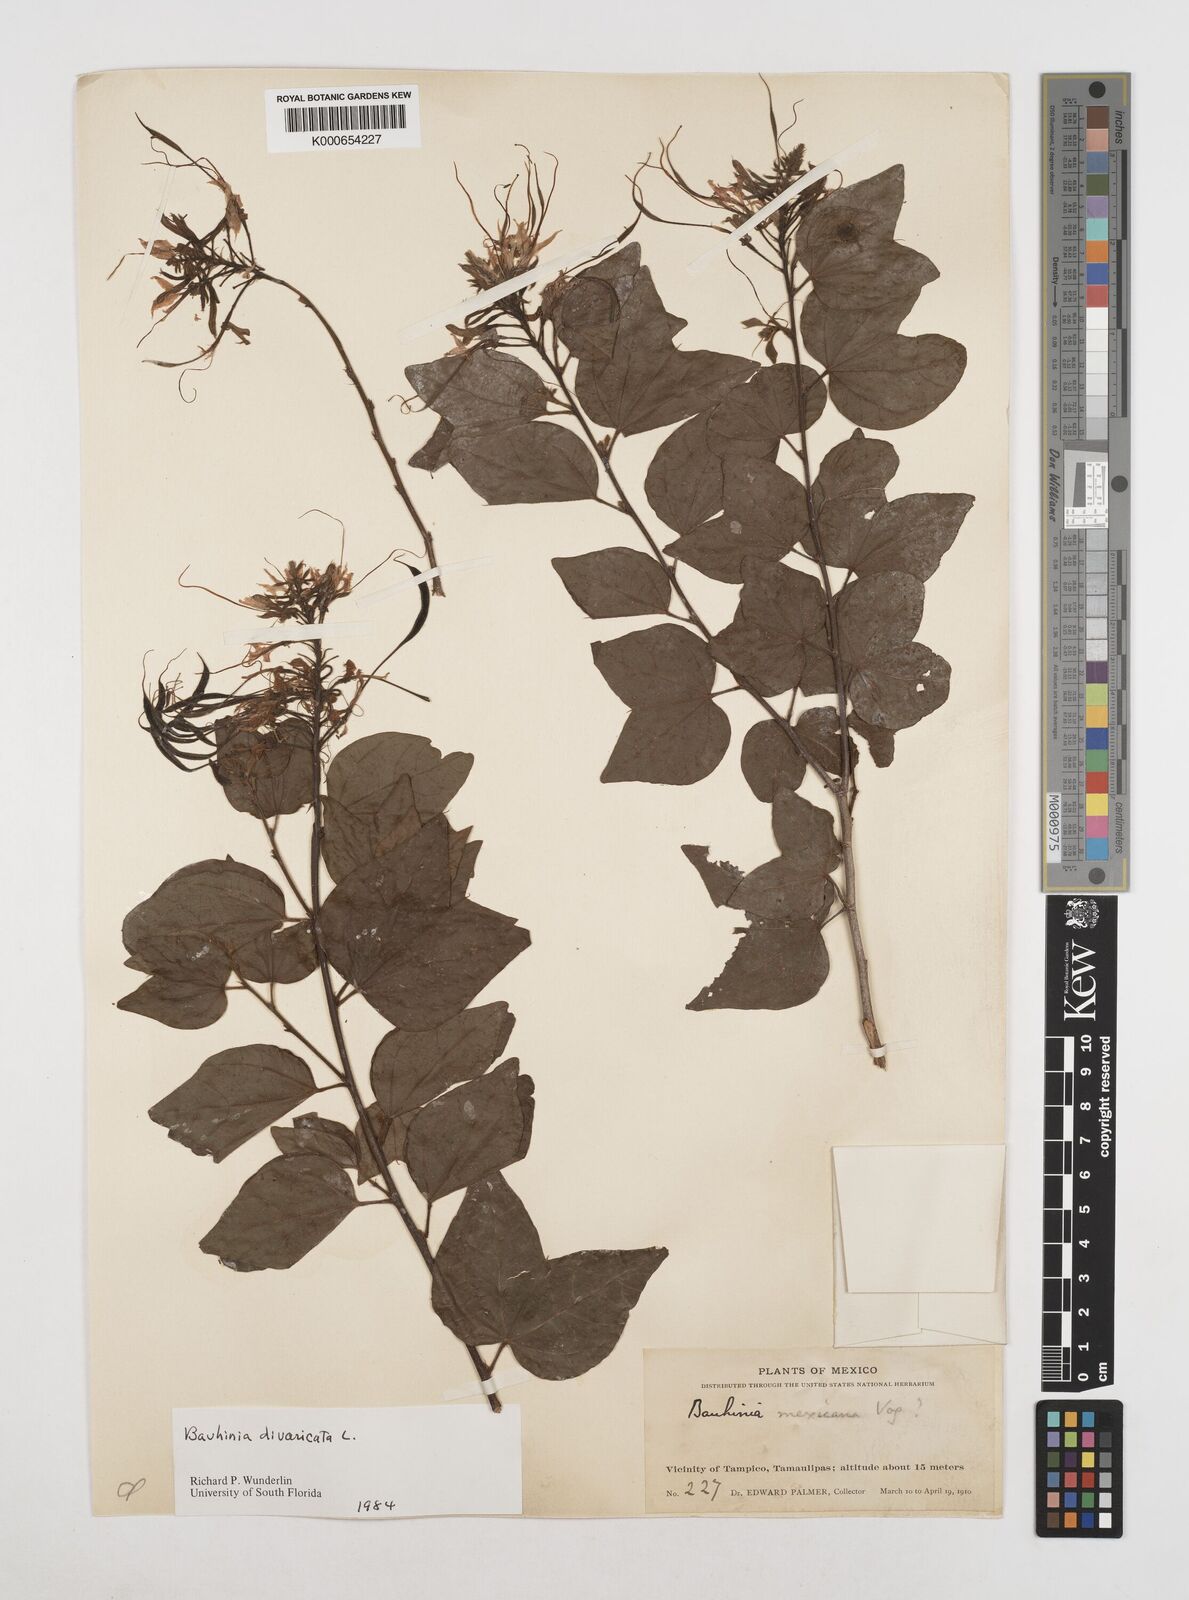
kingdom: Plantae
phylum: Tracheophyta
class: Magnoliopsida
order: Fabales
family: Fabaceae
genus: Bauhinia
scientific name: Bauhinia divaricata
